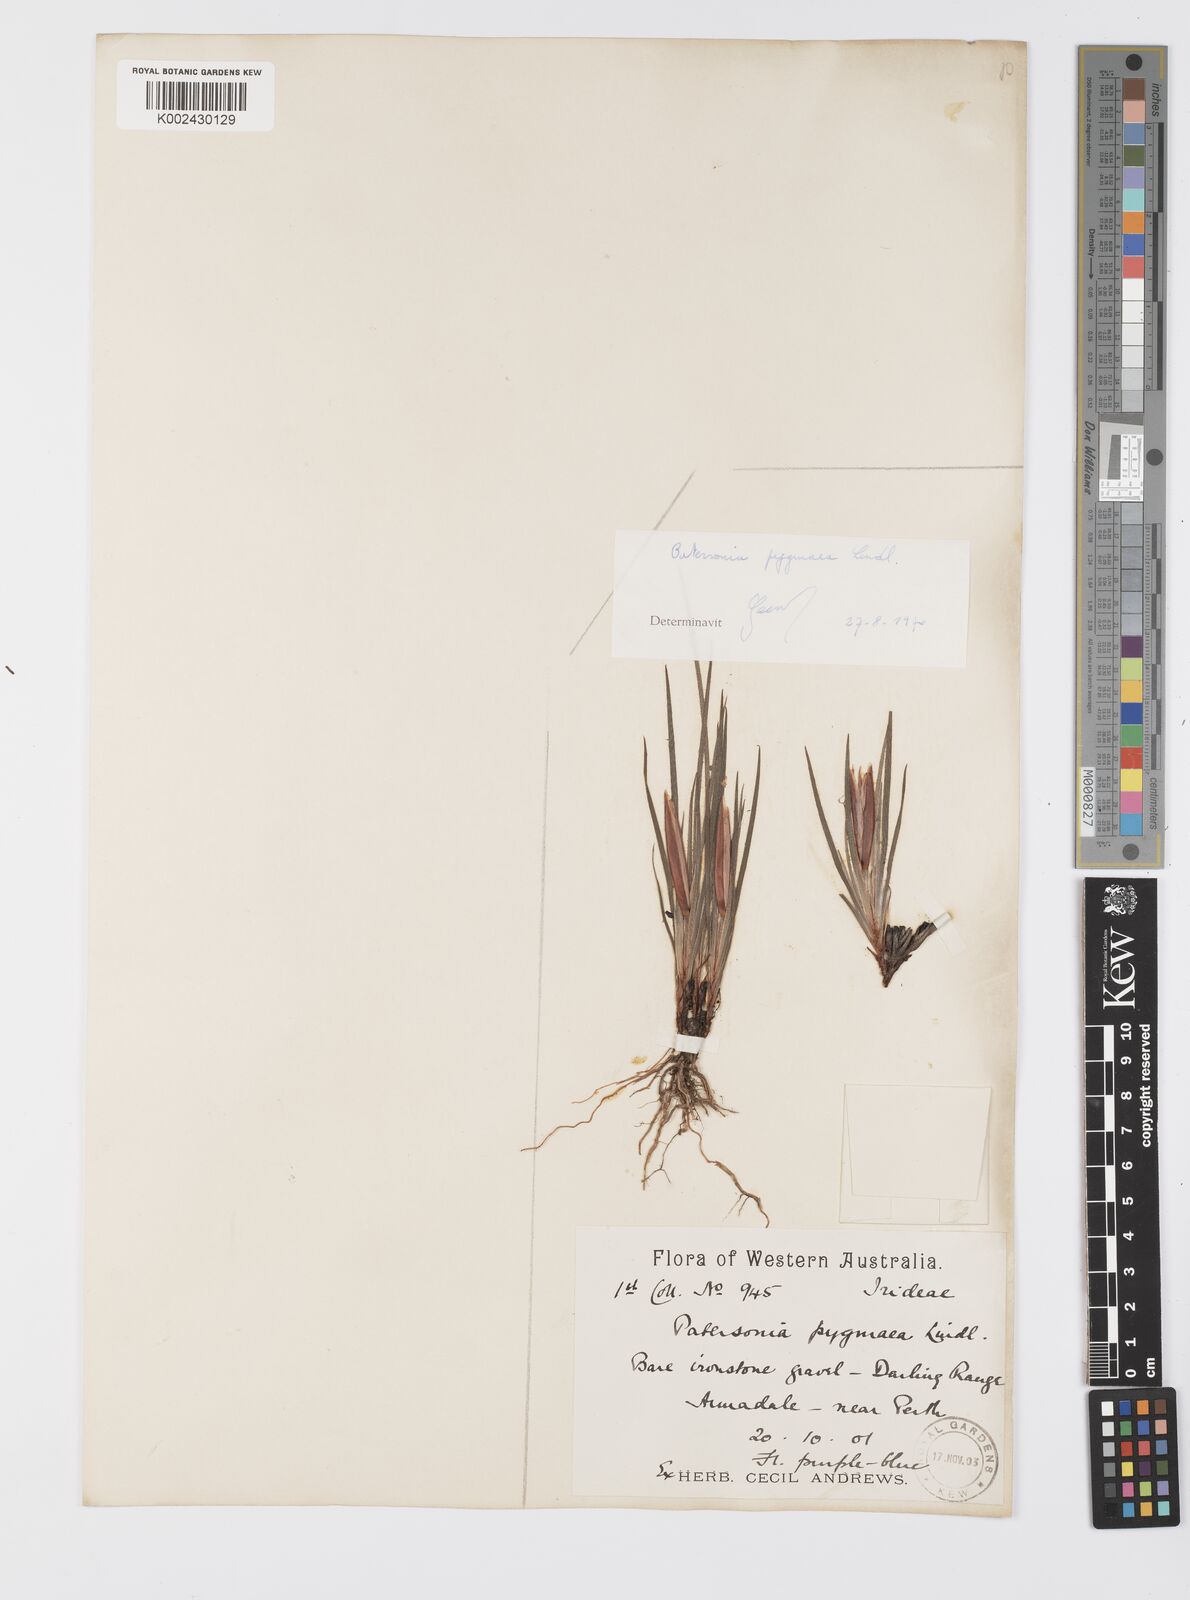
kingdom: Plantae
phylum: Tracheophyta
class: Liliopsida
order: Asparagales
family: Iridaceae
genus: Patersonia
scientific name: Patersonia pygmaea
